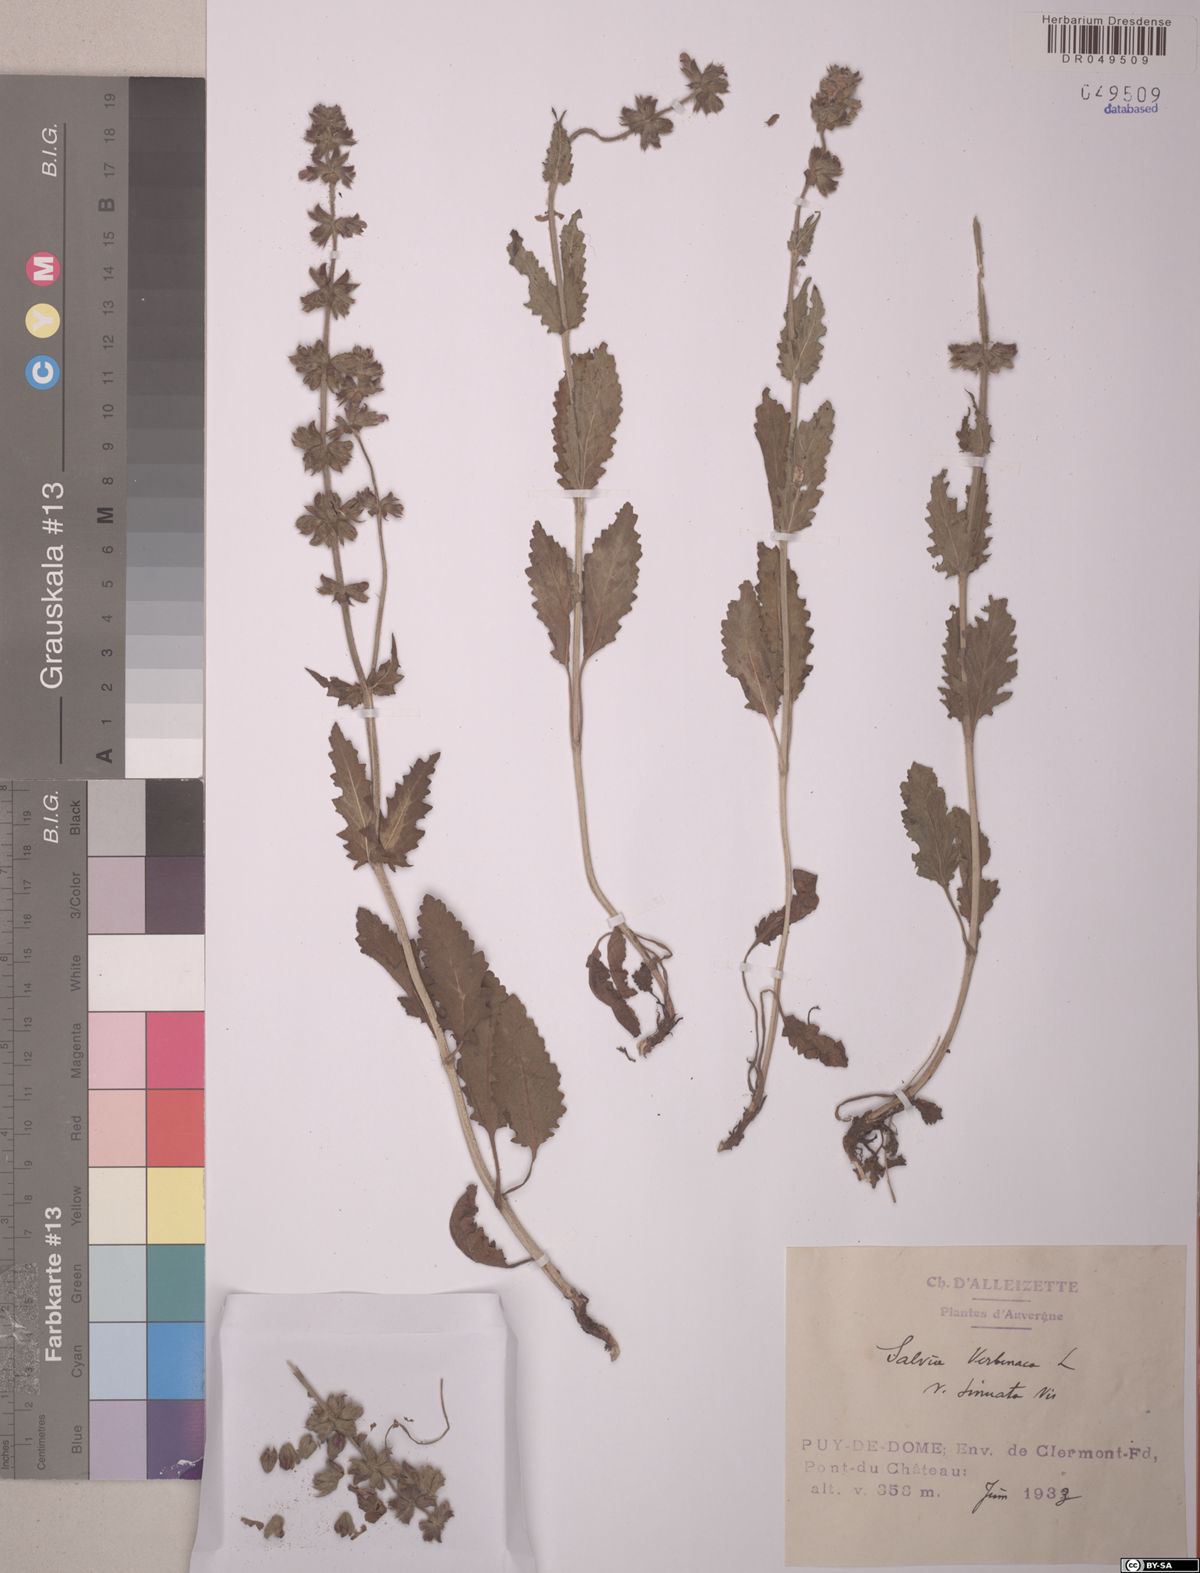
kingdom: Plantae
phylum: Tracheophyta
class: Magnoliopsida
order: Lamiales
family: Lamiaceae
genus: Salvia
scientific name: Salvia verbenaca
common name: Wild clary
